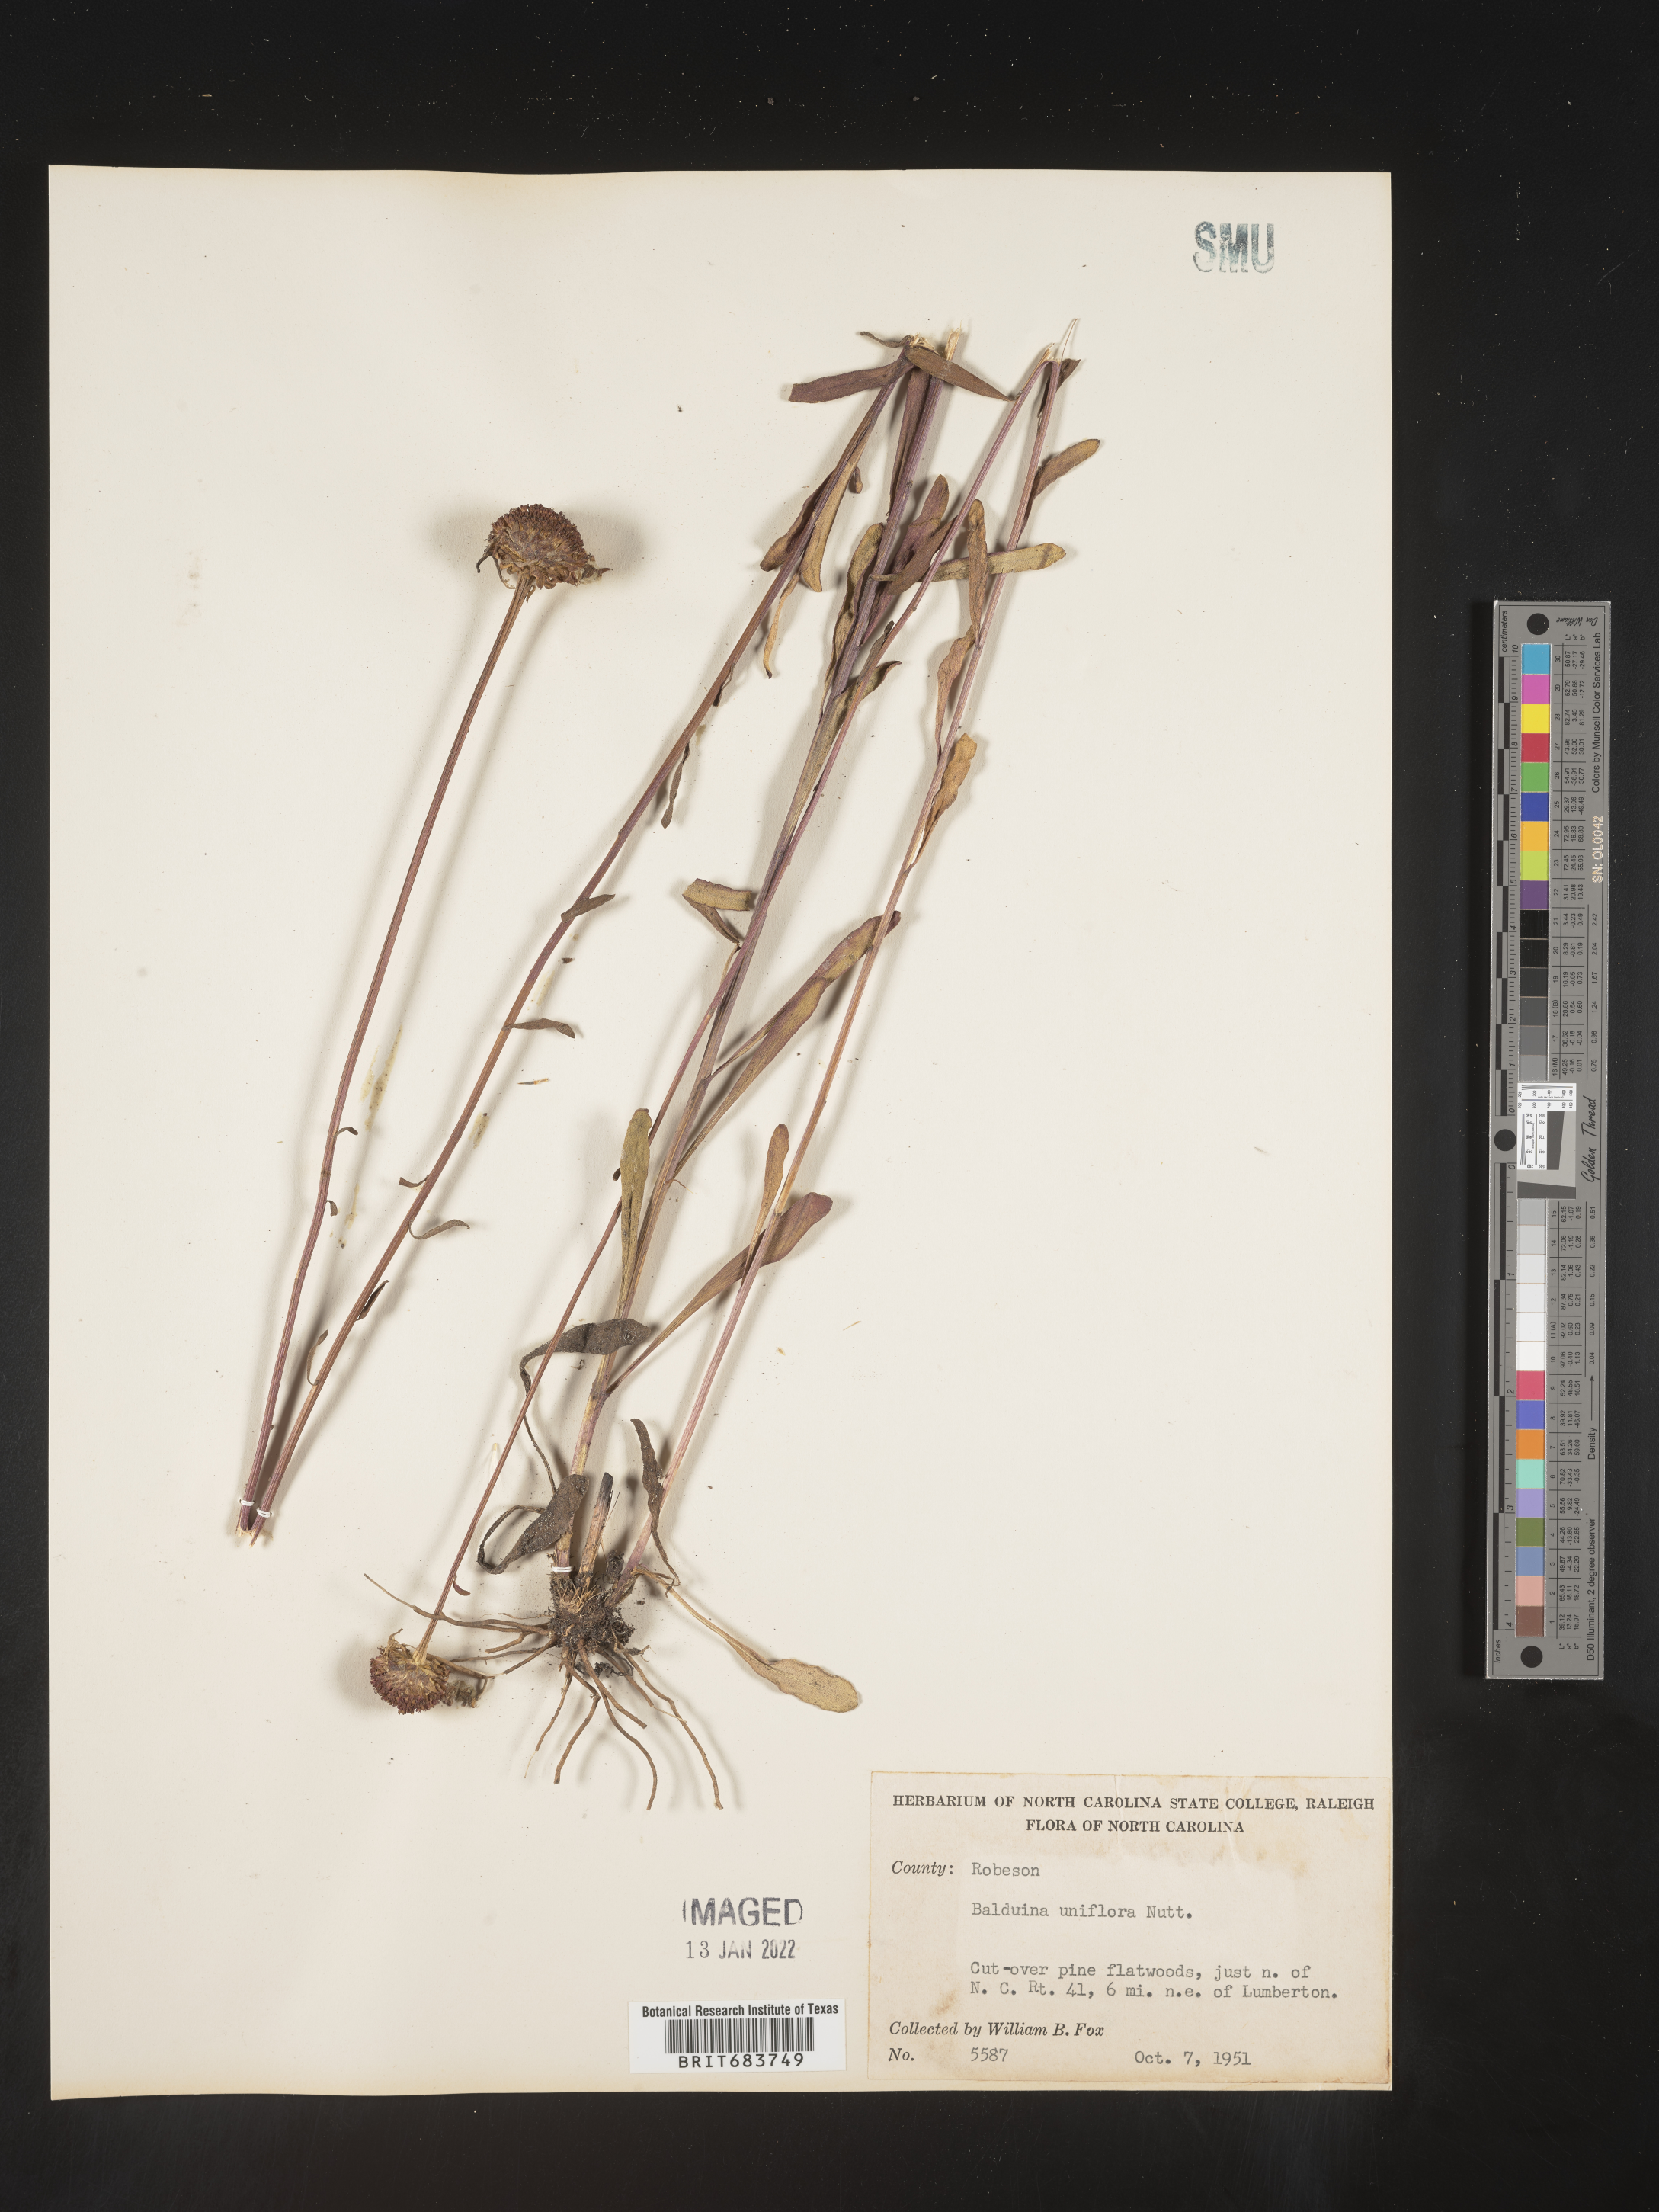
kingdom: Plantae
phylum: Tracheophyta
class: Magnoliopsida
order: Asterales
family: Asteraceae
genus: Balduina
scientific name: Balduina uniflora
